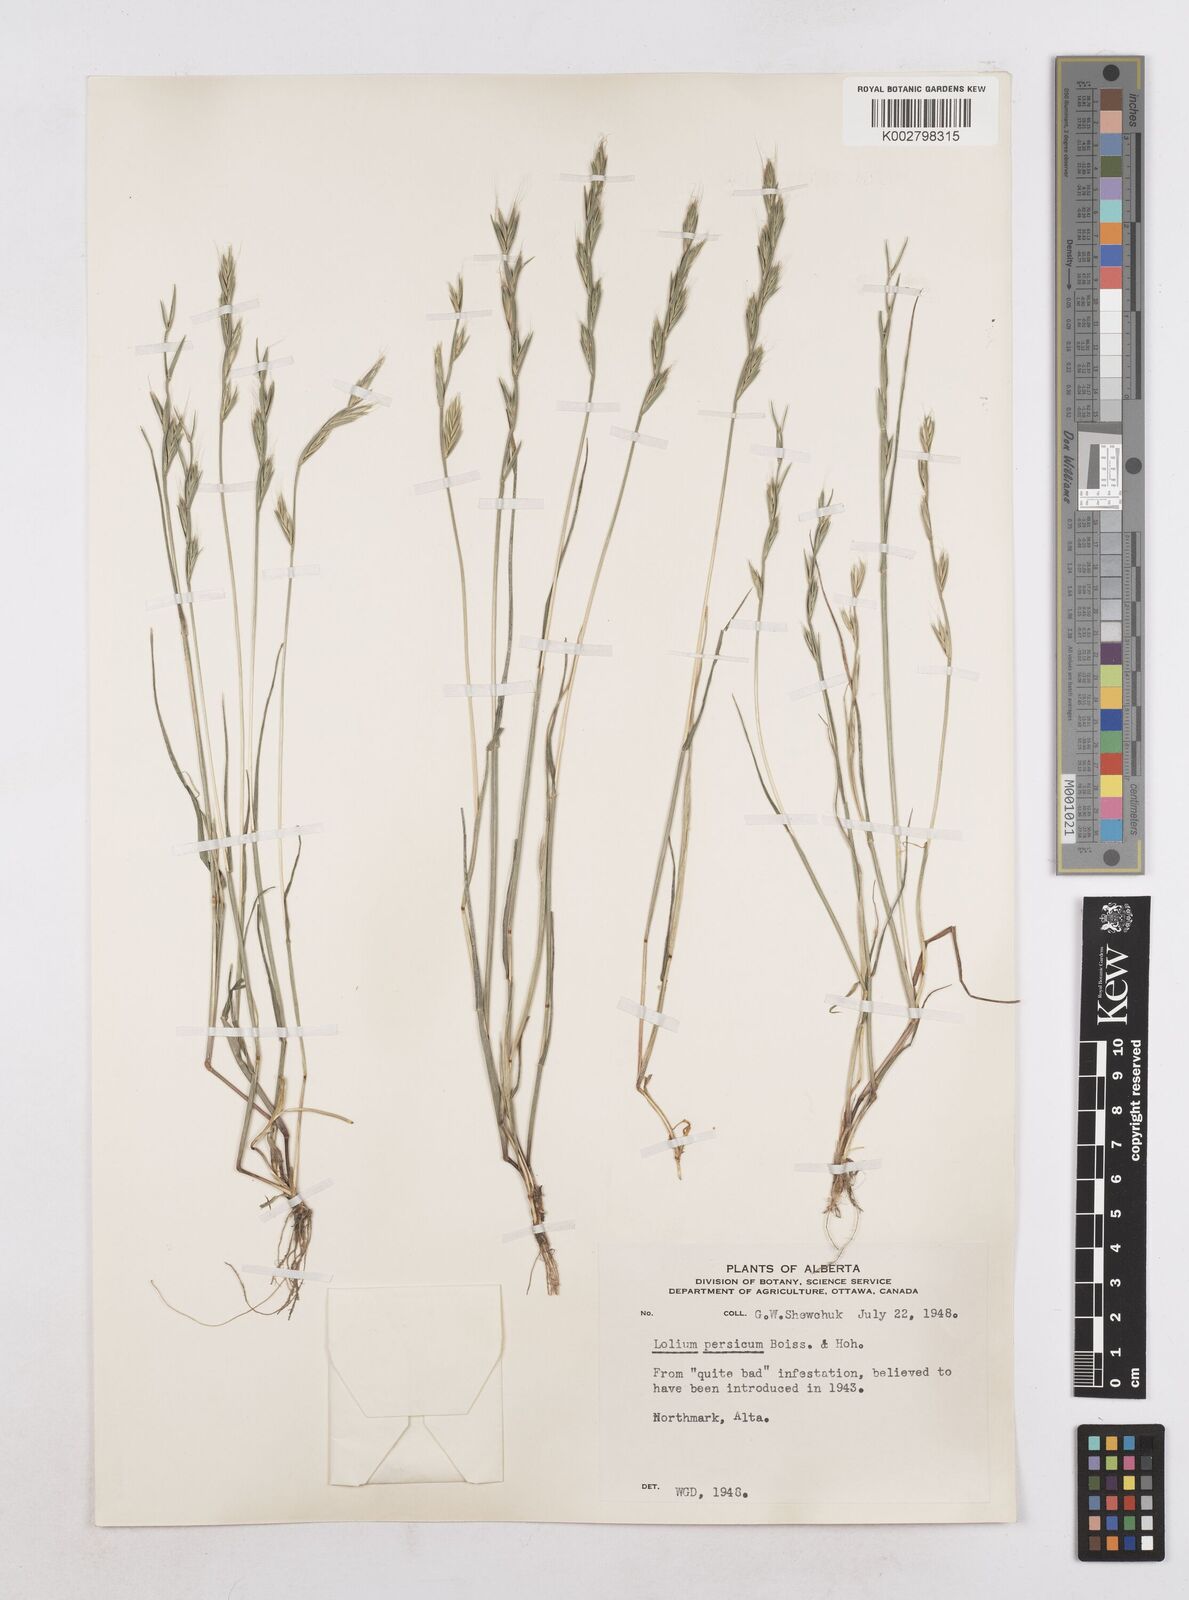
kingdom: Plantae
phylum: Tracheophyta
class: Liliopsida
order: Poales
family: Poaceae
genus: Lolium
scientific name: Lolium persicum
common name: Persian ryegrass
